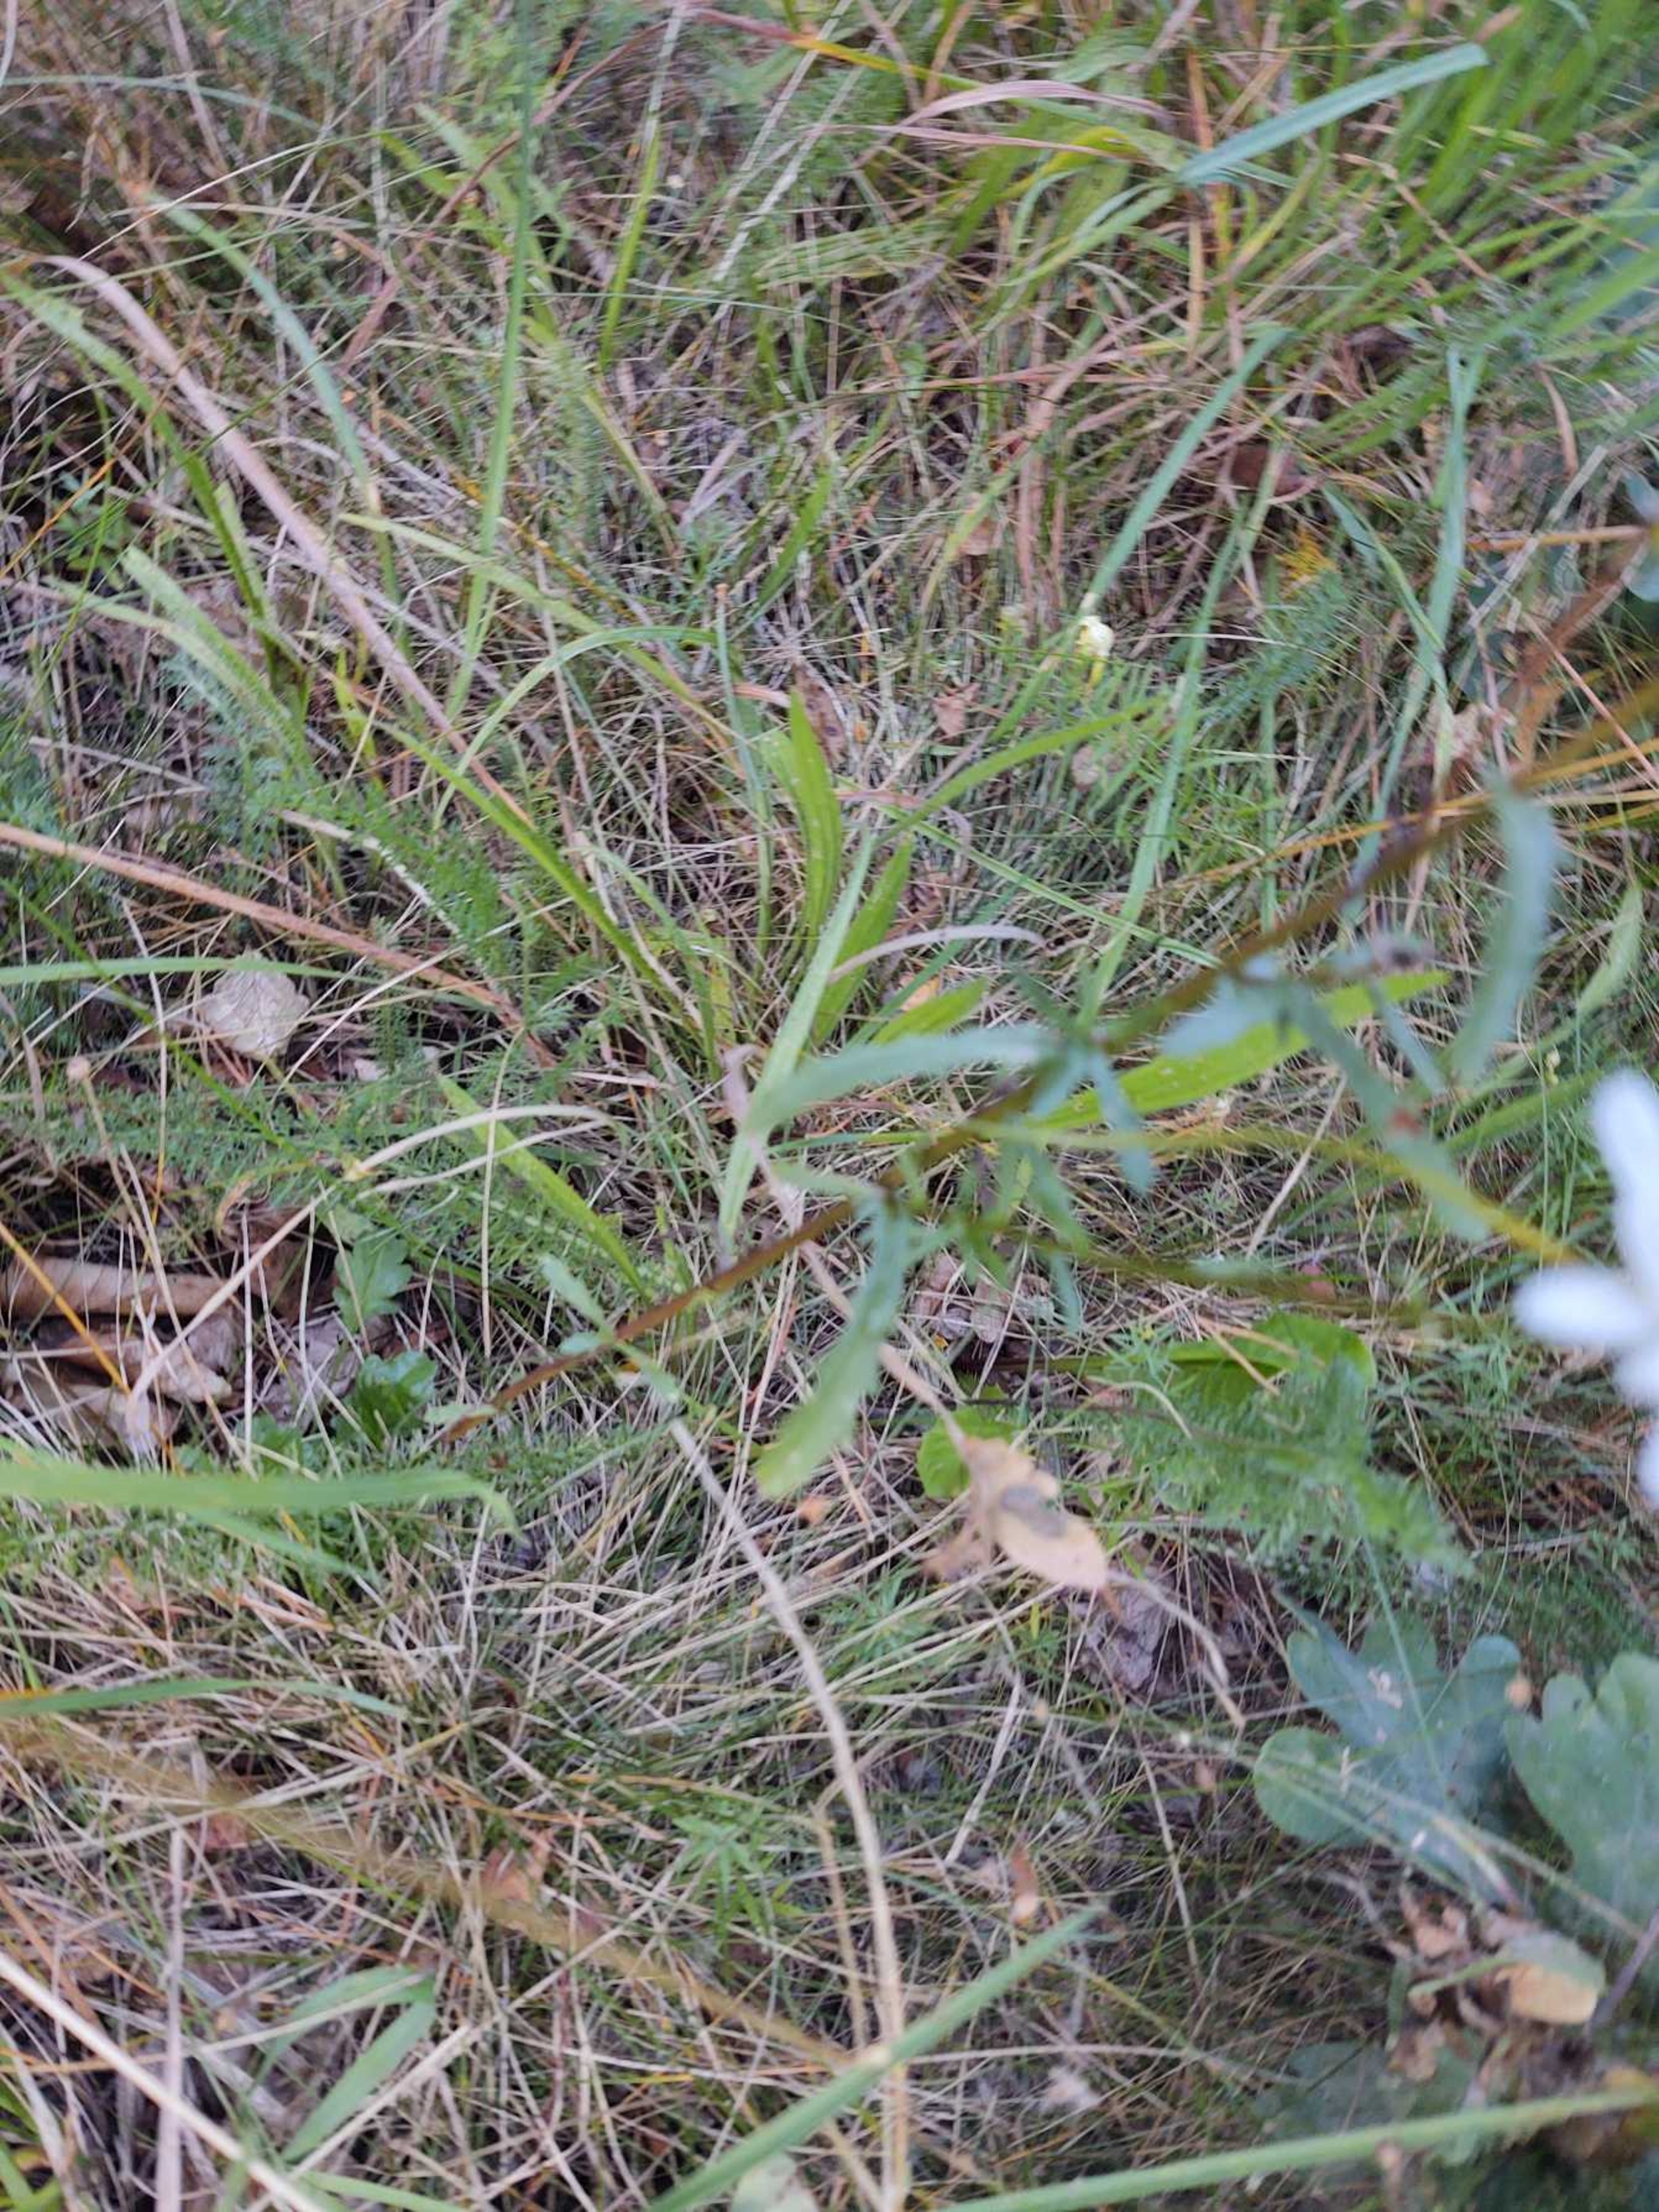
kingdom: Plantae
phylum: Tracheophyta
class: Magnoliopsida
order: Asterales
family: Asteraceae
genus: Leucanthemum
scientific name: Leucanthemum vulgare
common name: Hvid okseøje
